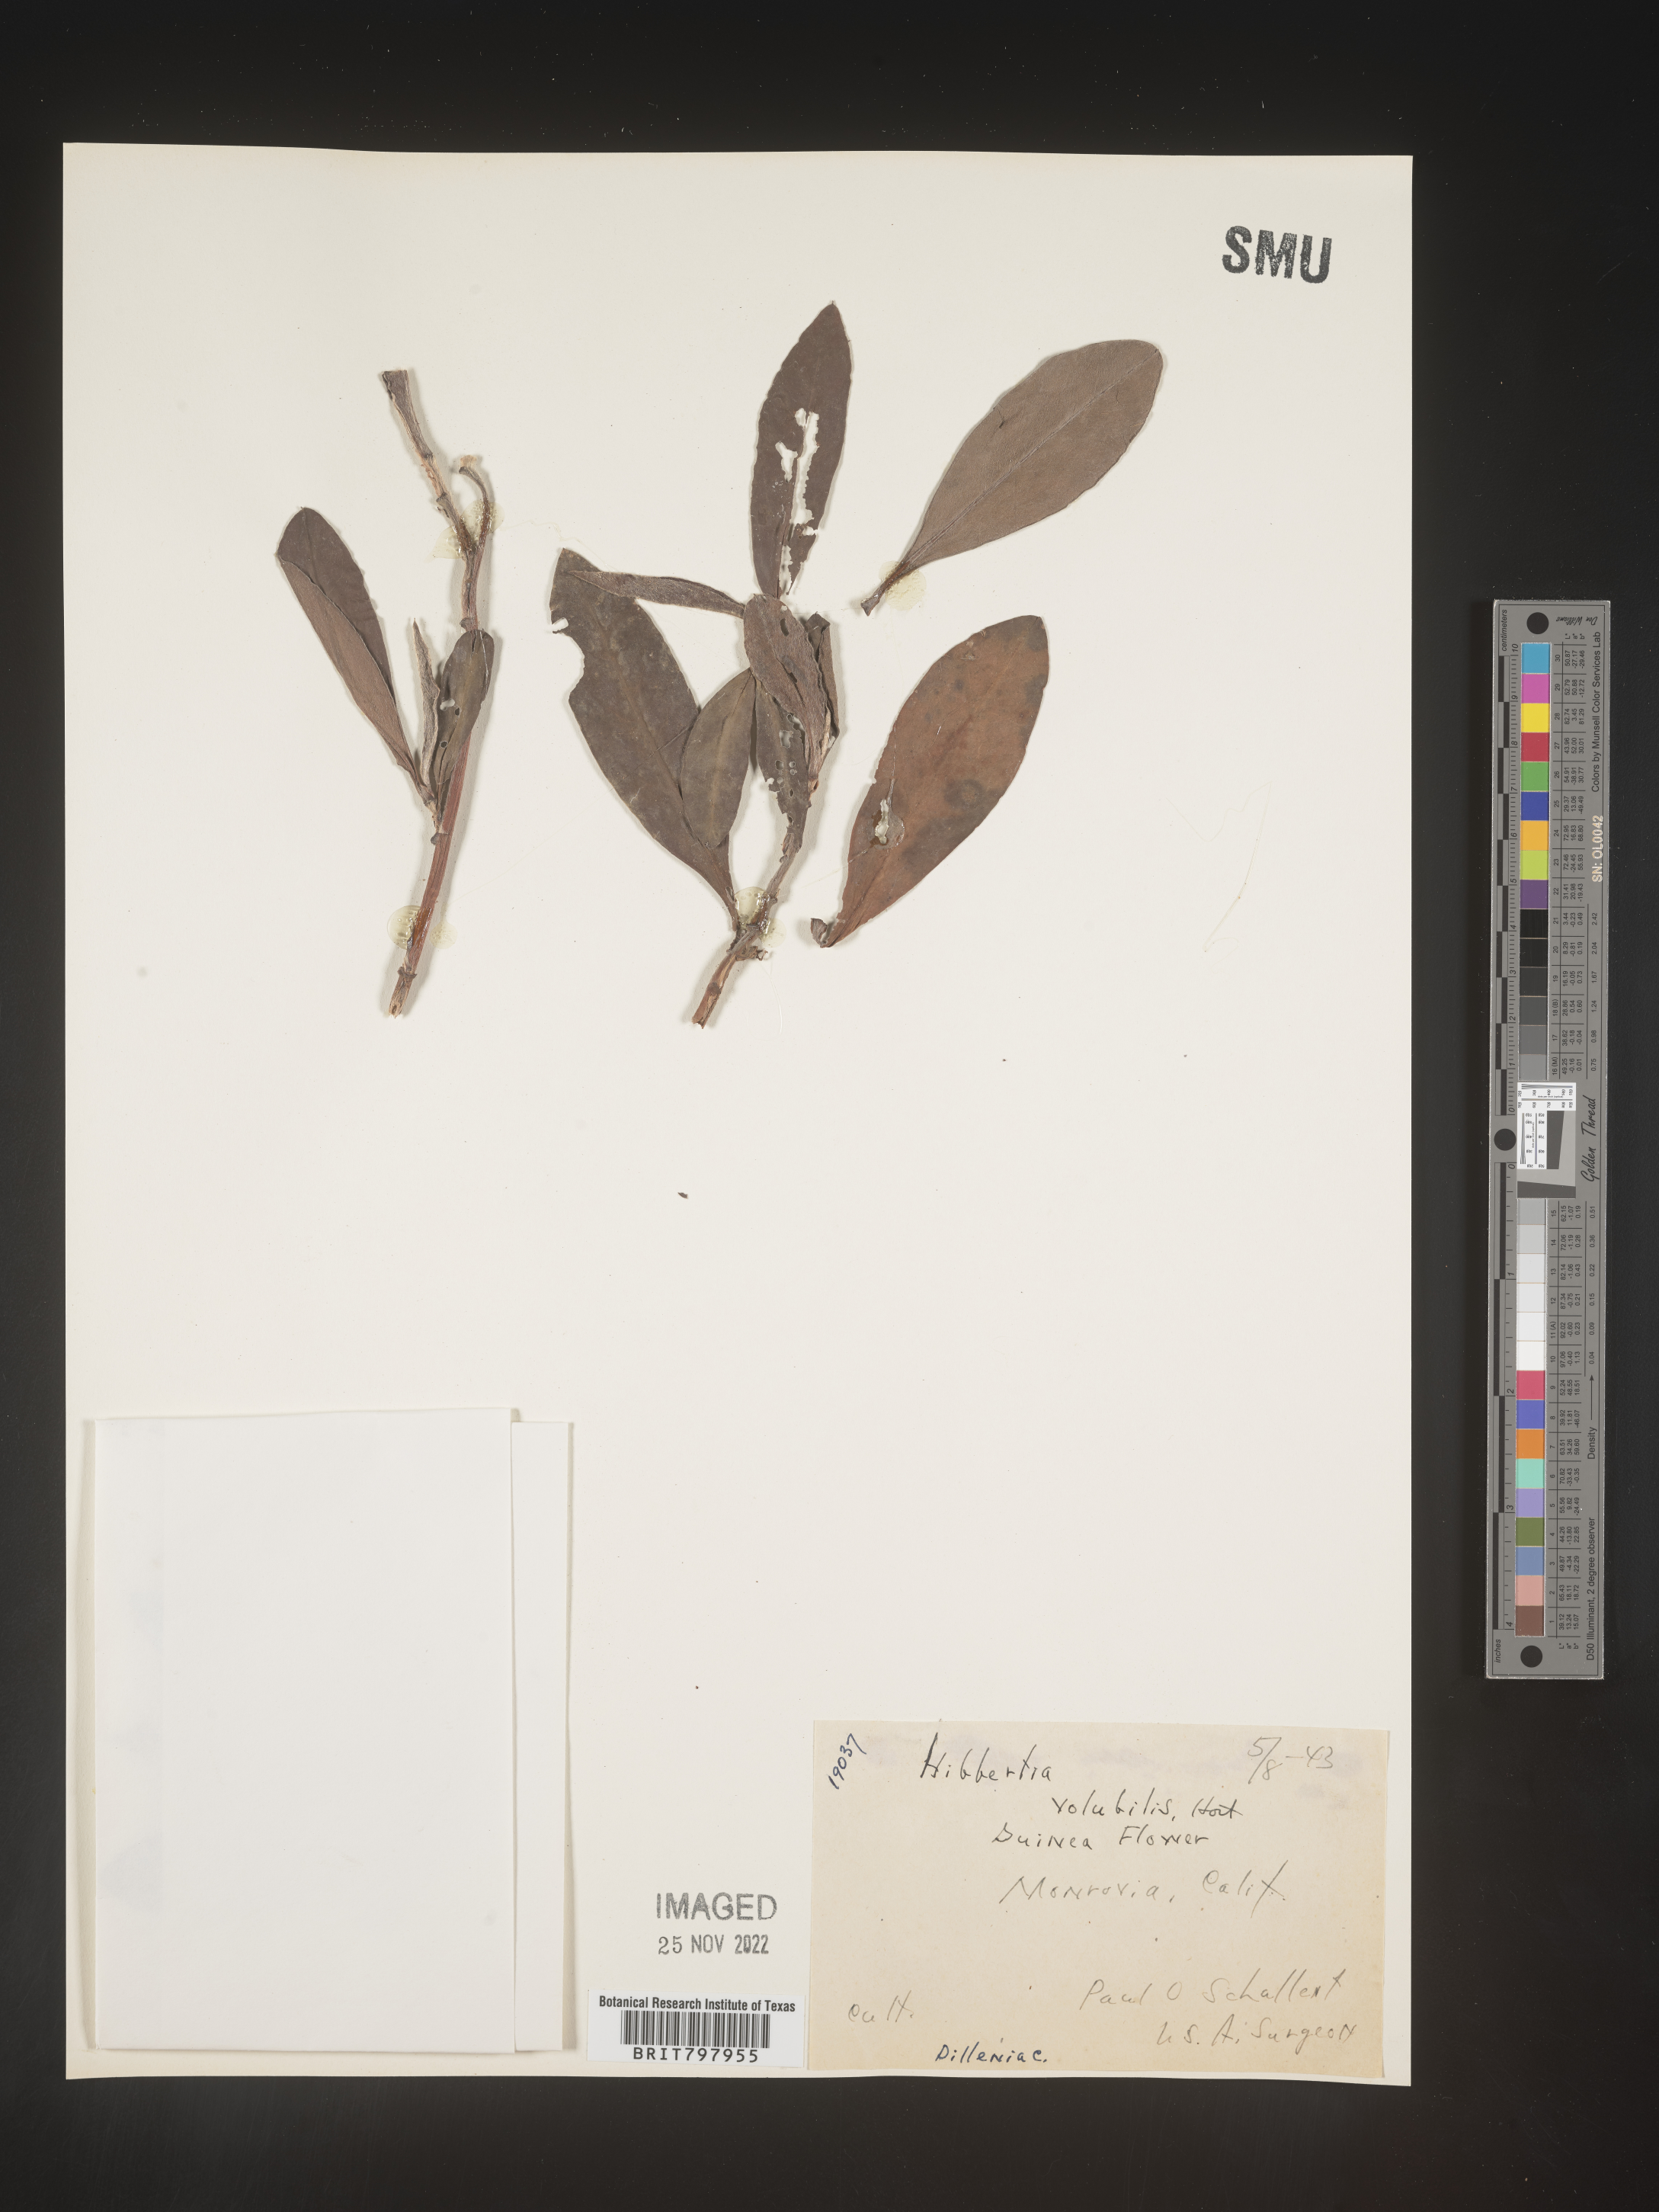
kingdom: Plantae
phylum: Tracheophyta
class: Magnoliopsida
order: Dilleniales
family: Dilleniaceae
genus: Hibbertia
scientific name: Hibbertia
